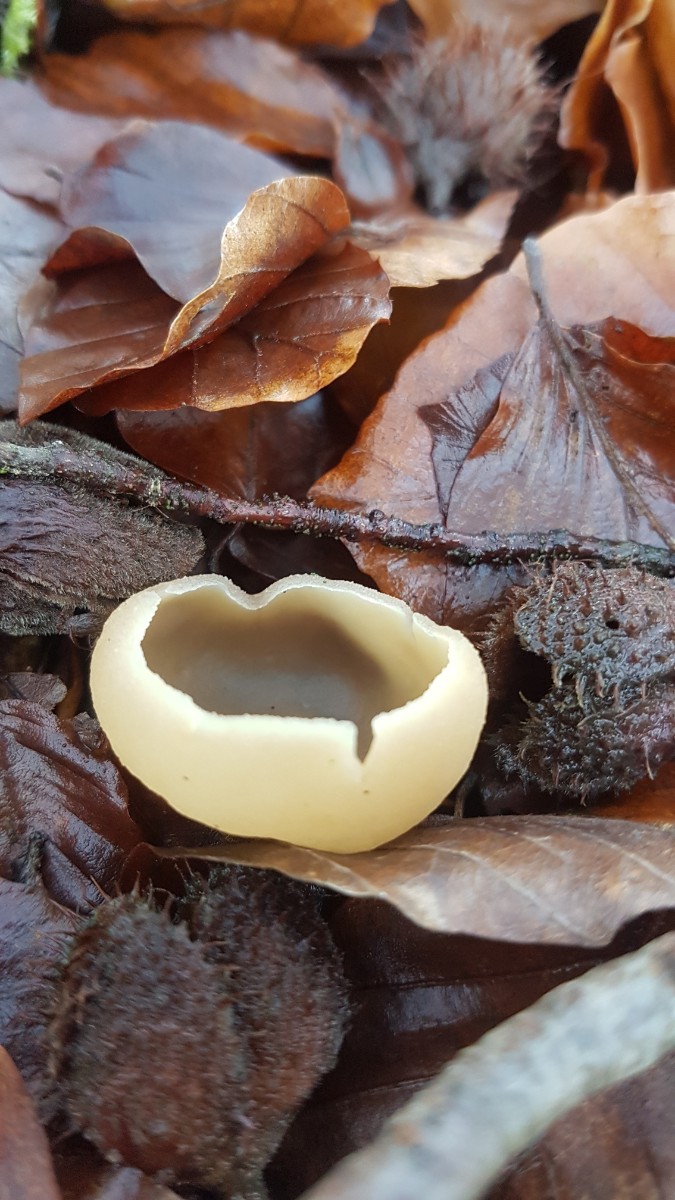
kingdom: Fungi
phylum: Ascomycota
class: Pezizomycetes
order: Pezizales
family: Pezizaceae
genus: Peziza
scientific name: Peziza
